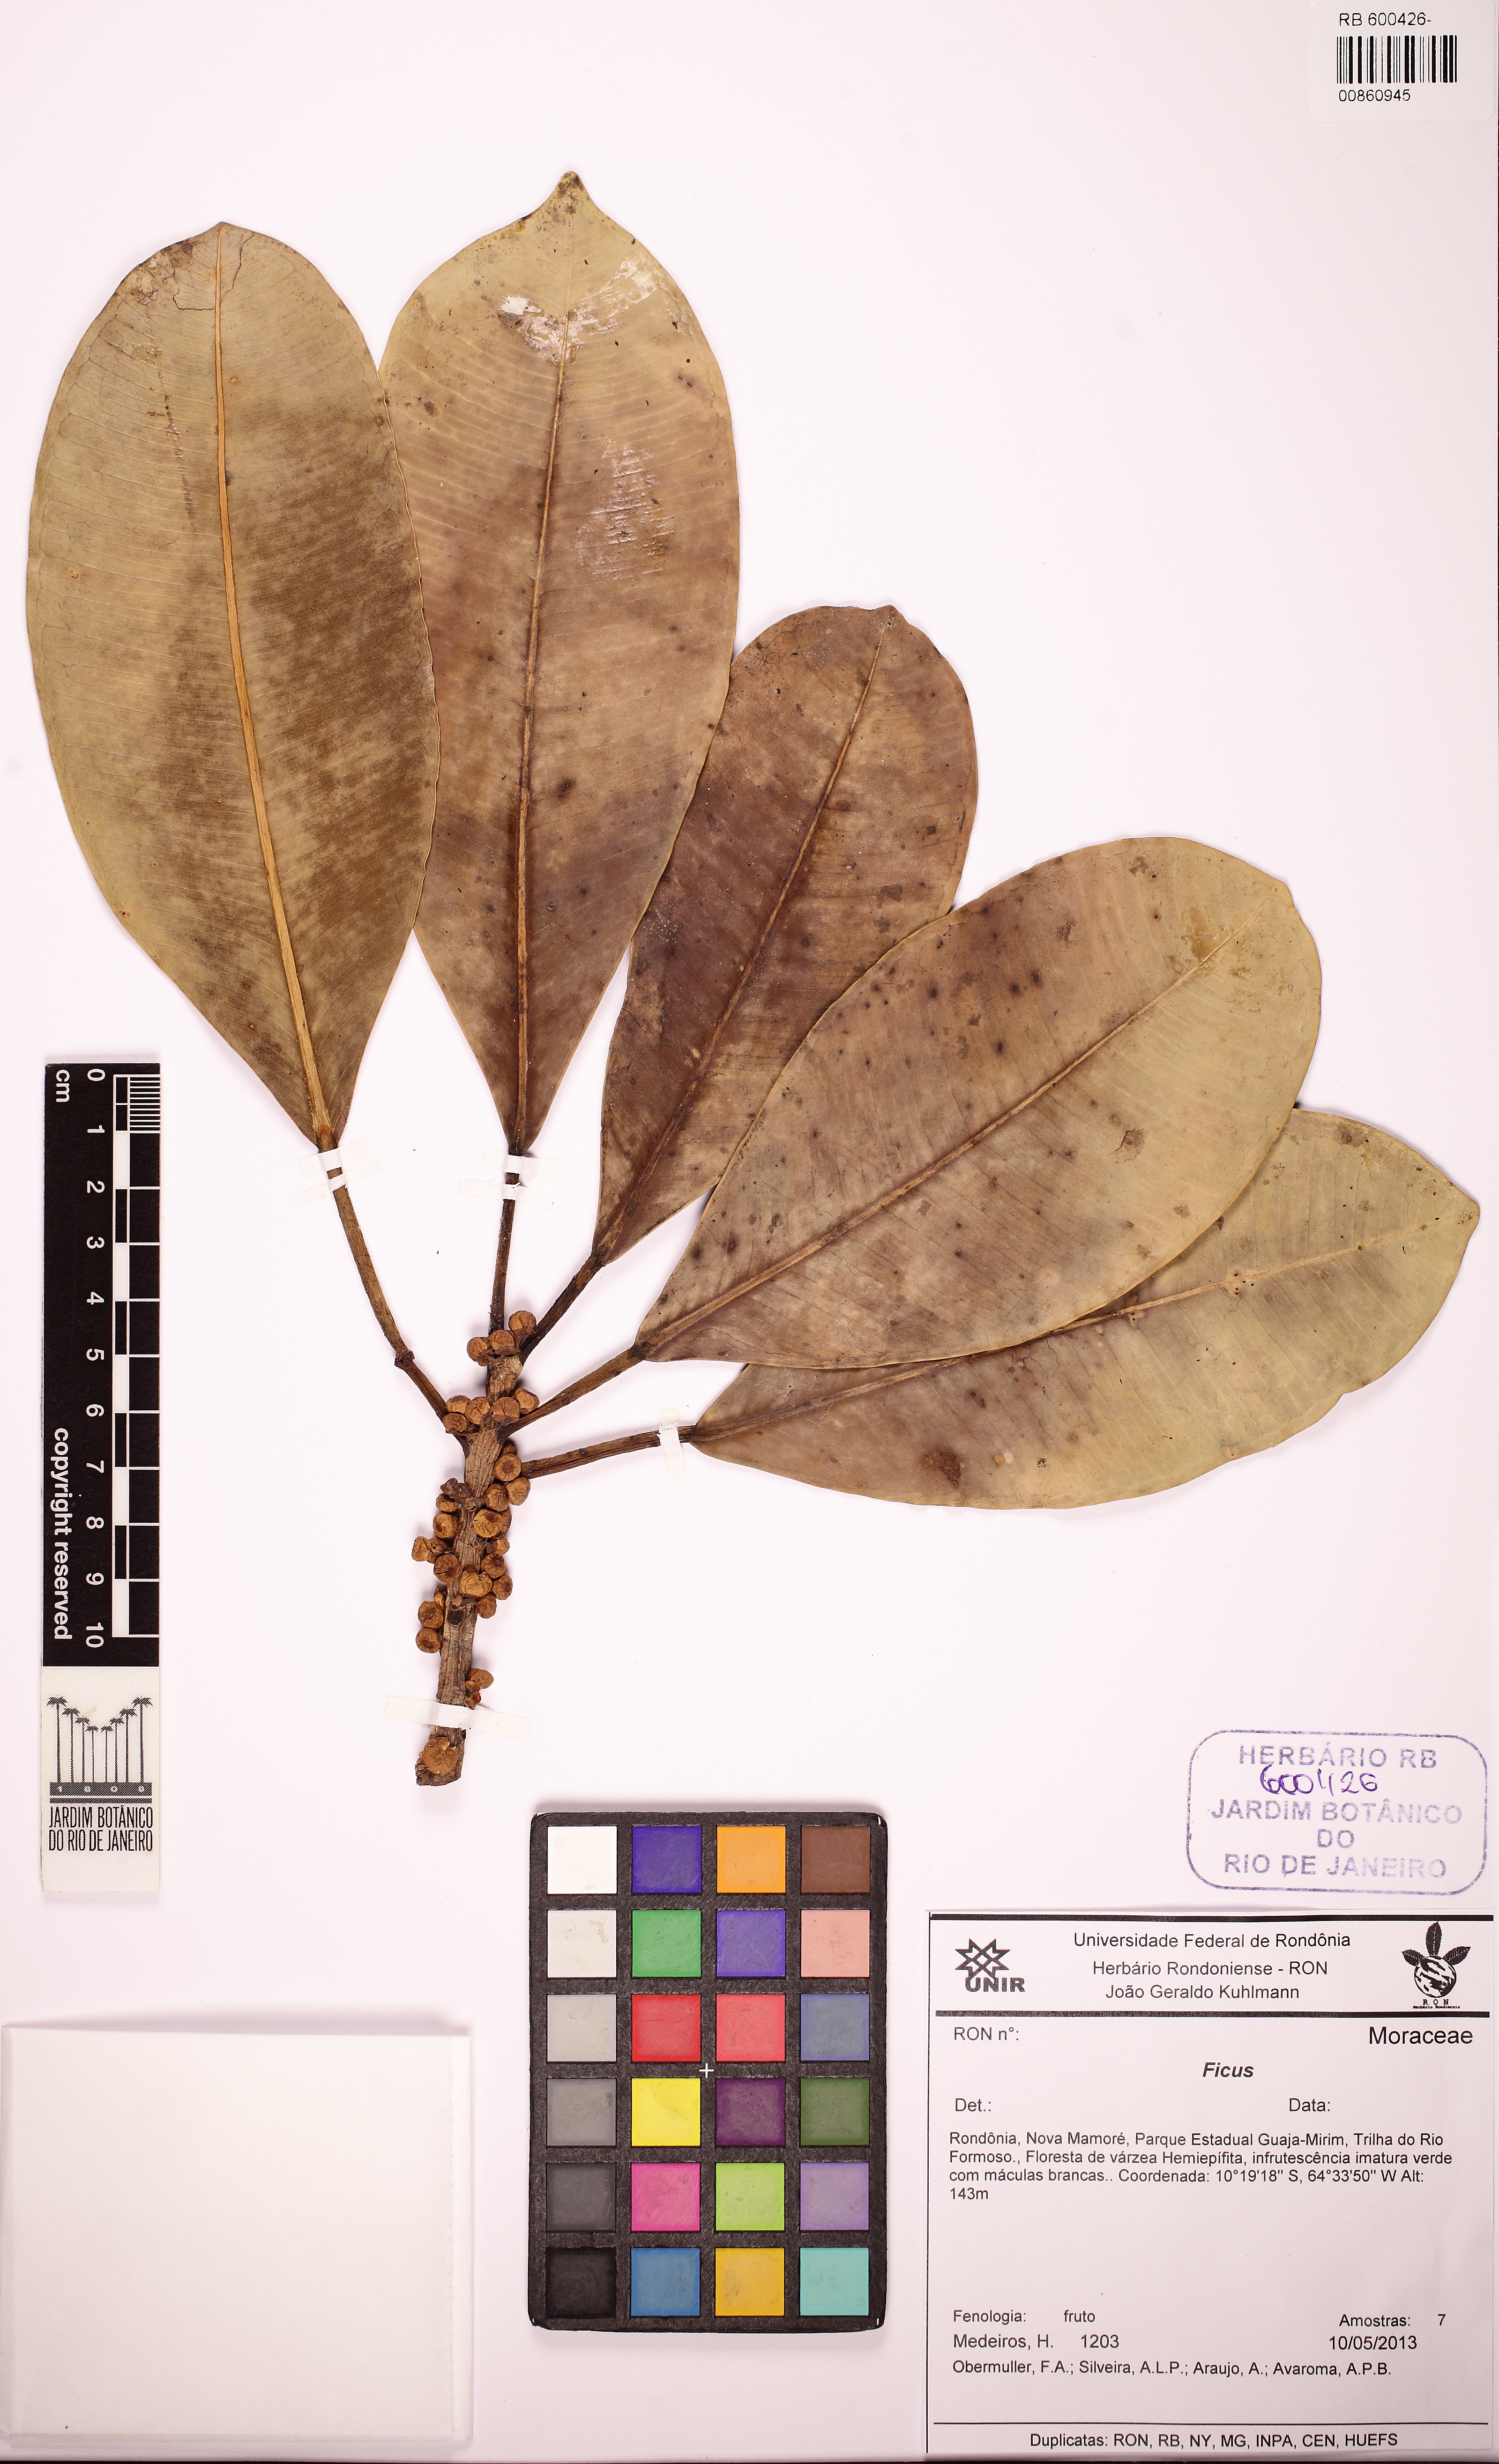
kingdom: Plantae
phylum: Tracheophyta
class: Magnoliopsida
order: Rosales
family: Moraceae
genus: Ficus
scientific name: Ficus sphenophylla
